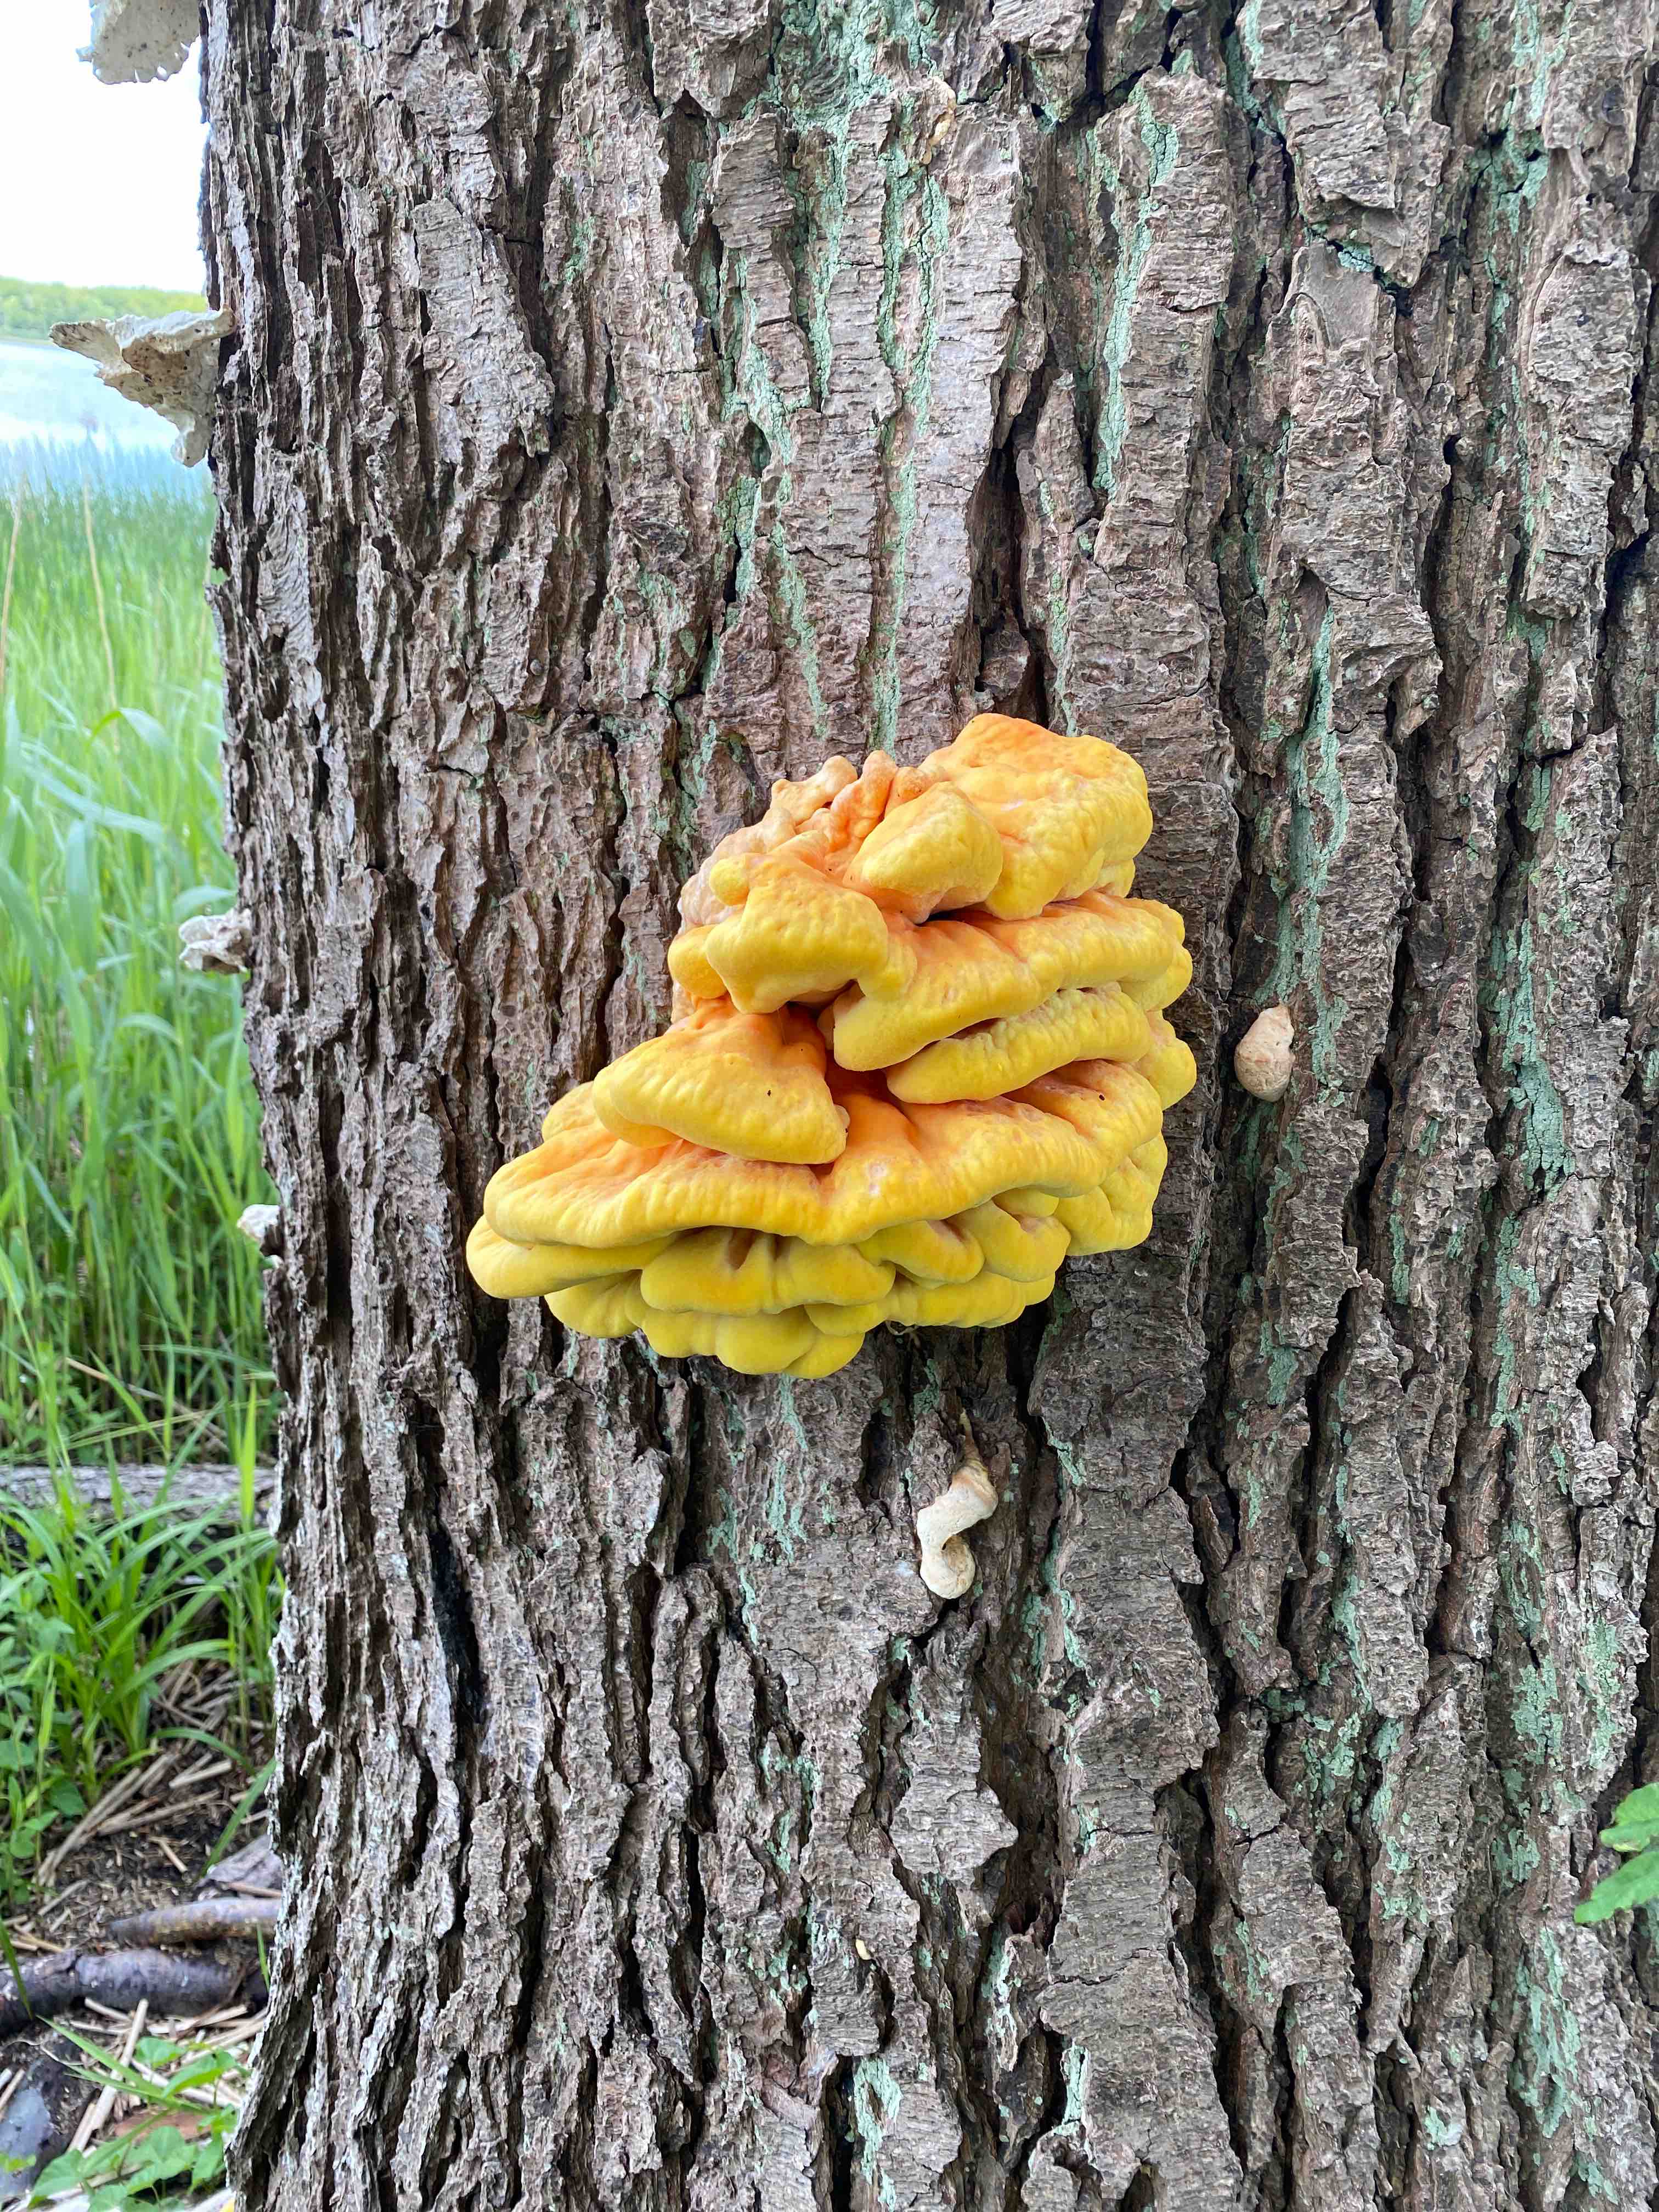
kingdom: Fungi
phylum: Basidiomycota
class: Agaricomycetes
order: Polyporales
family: Laetiporaceae
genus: Laetiporus
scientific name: Laetiporus sulphureus
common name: svovlporesvamp
